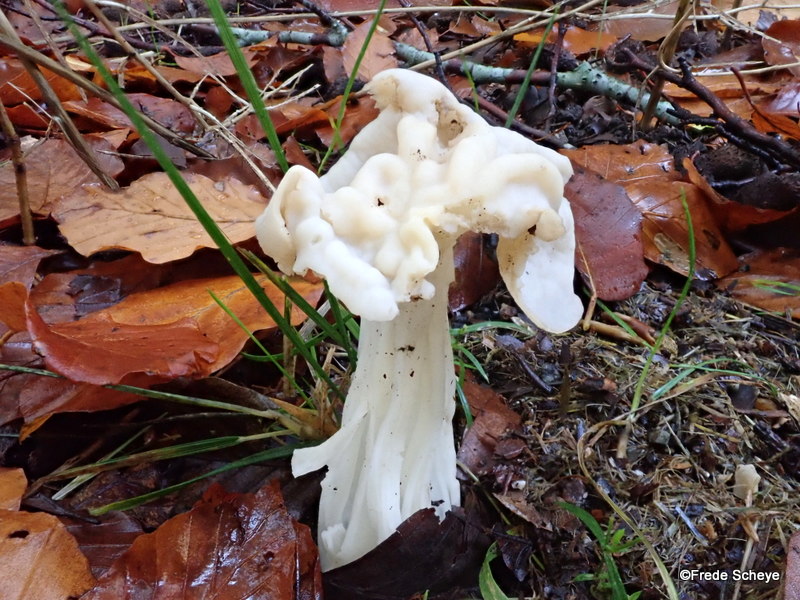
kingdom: Fungi
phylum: Ascomycota
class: Pezizomycetes
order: Pezizales
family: Helvellaceae
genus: Helvella
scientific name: Helvella crispa
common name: kruset foldhat
